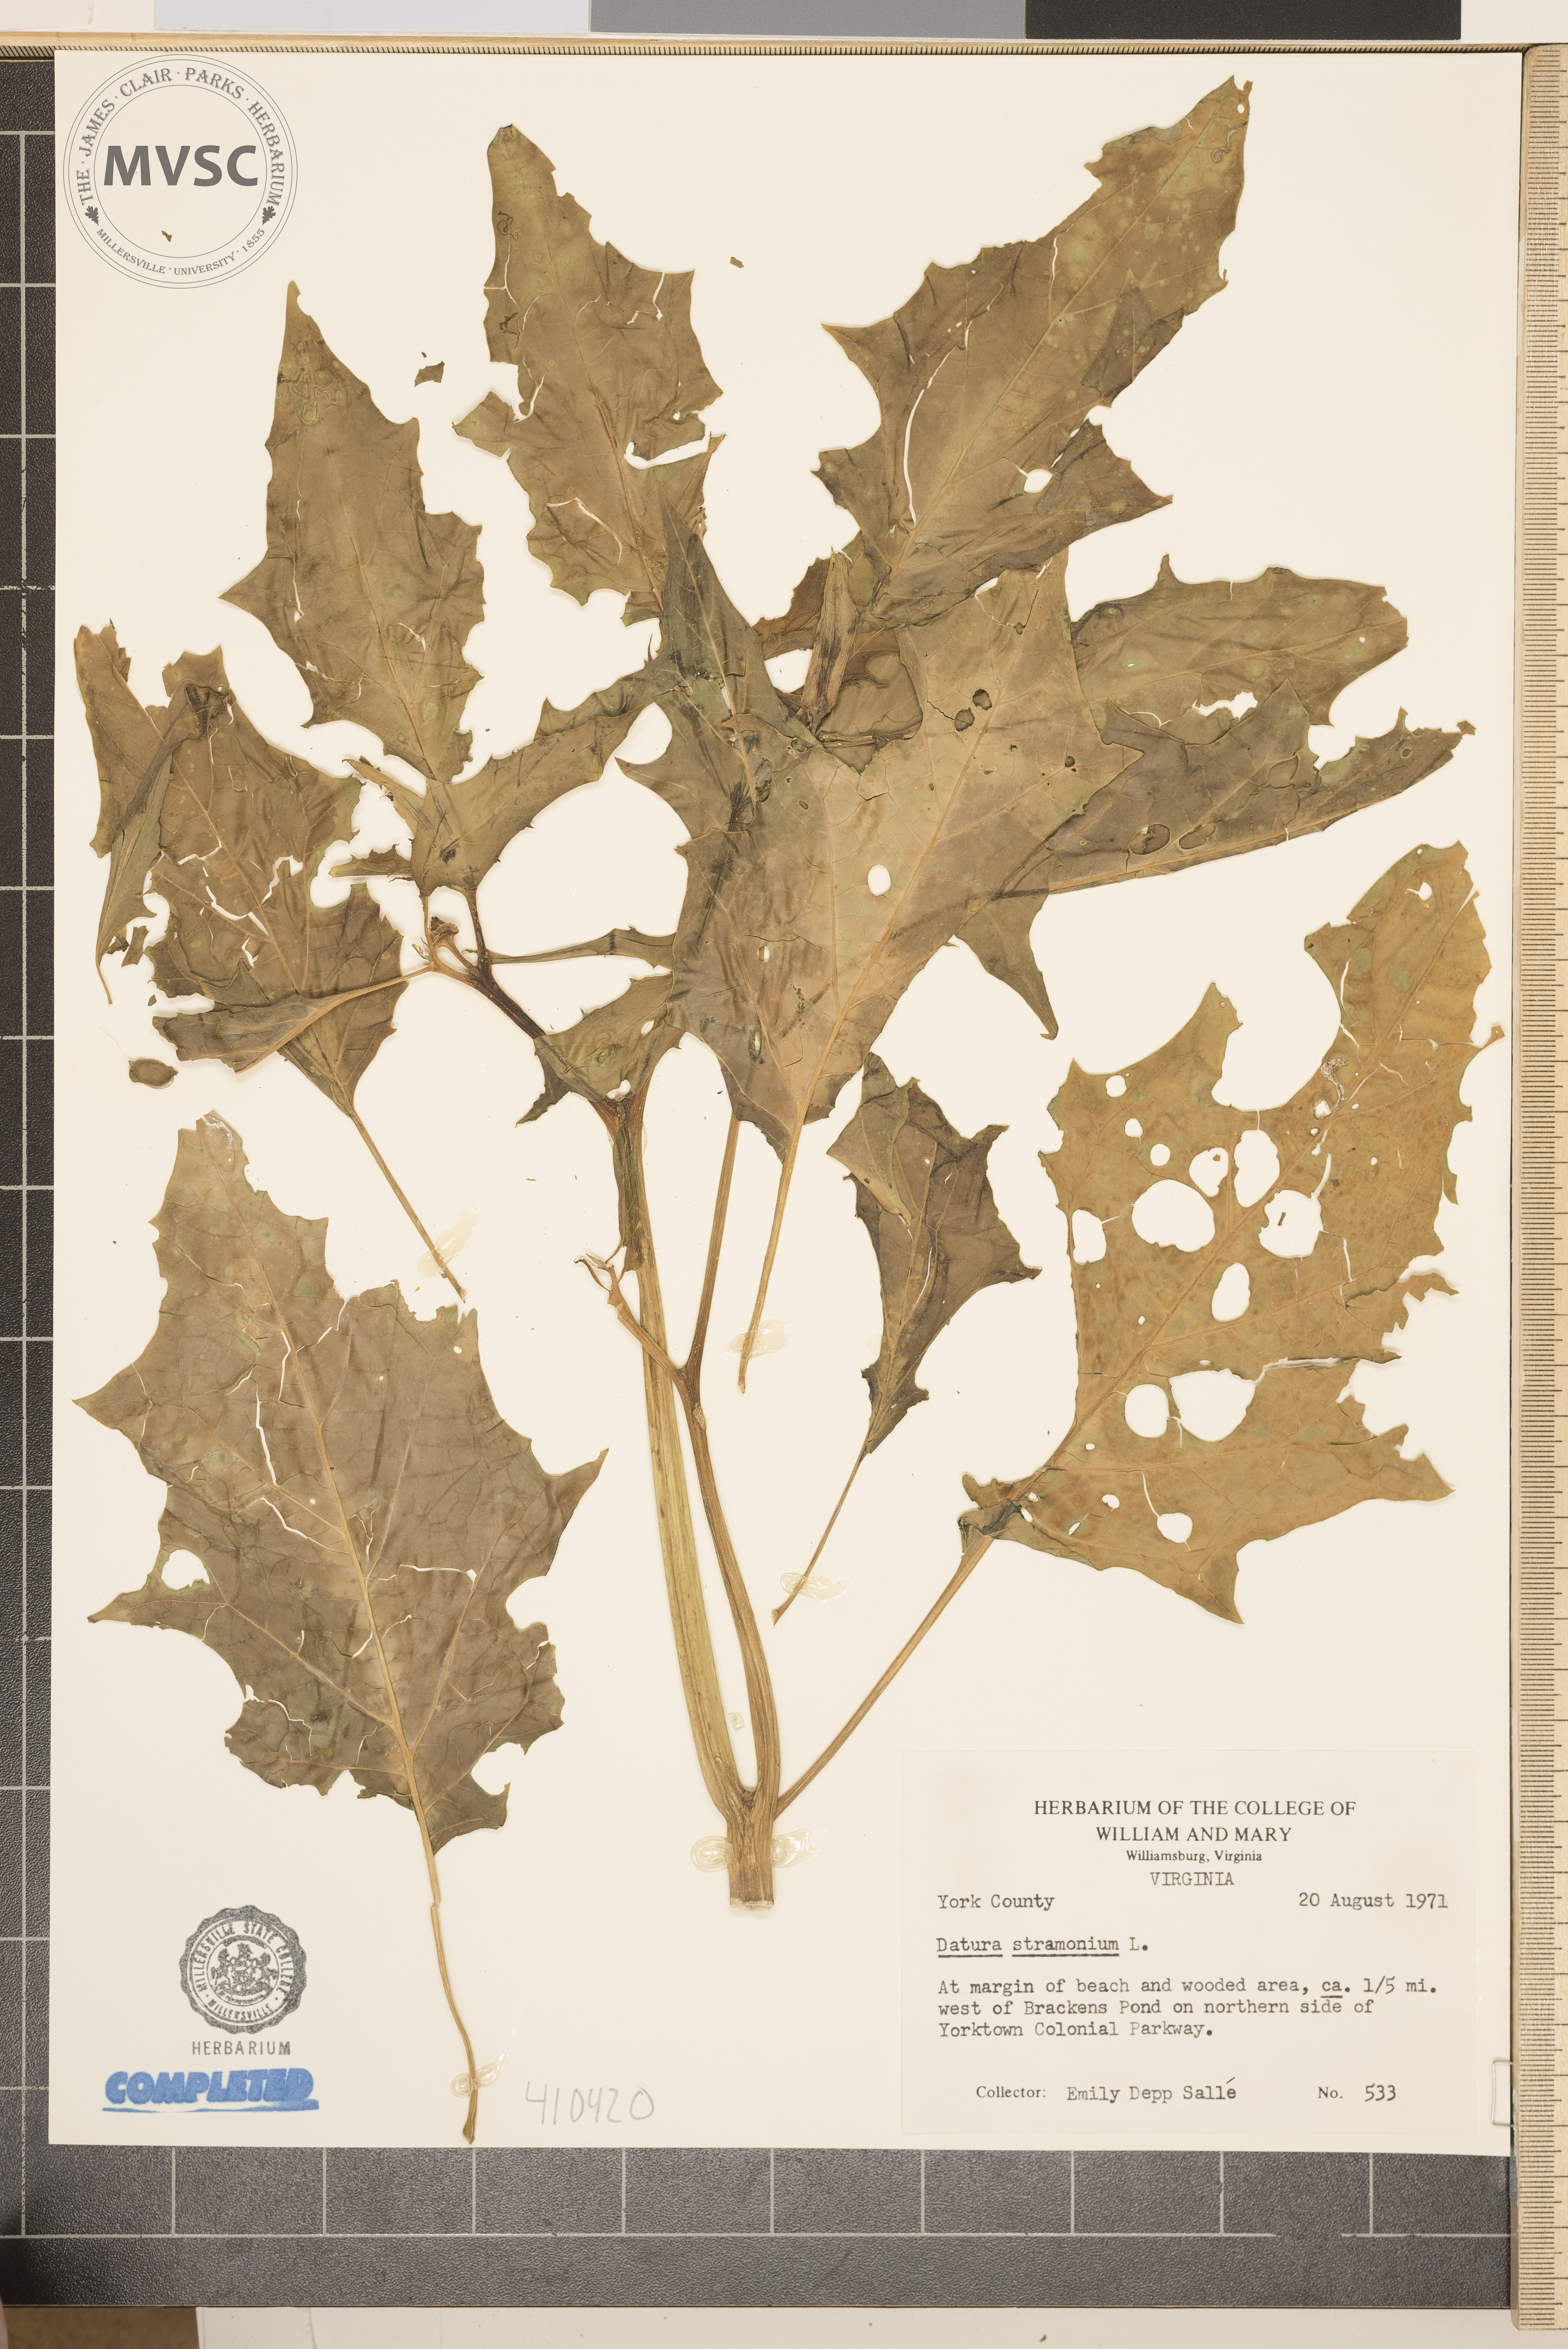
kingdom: Plantae
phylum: Tracheophyta
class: Magnoliopsida
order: Solanales
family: Solanaceae
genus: Datura
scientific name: Datura stramonium
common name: jimsonweed
